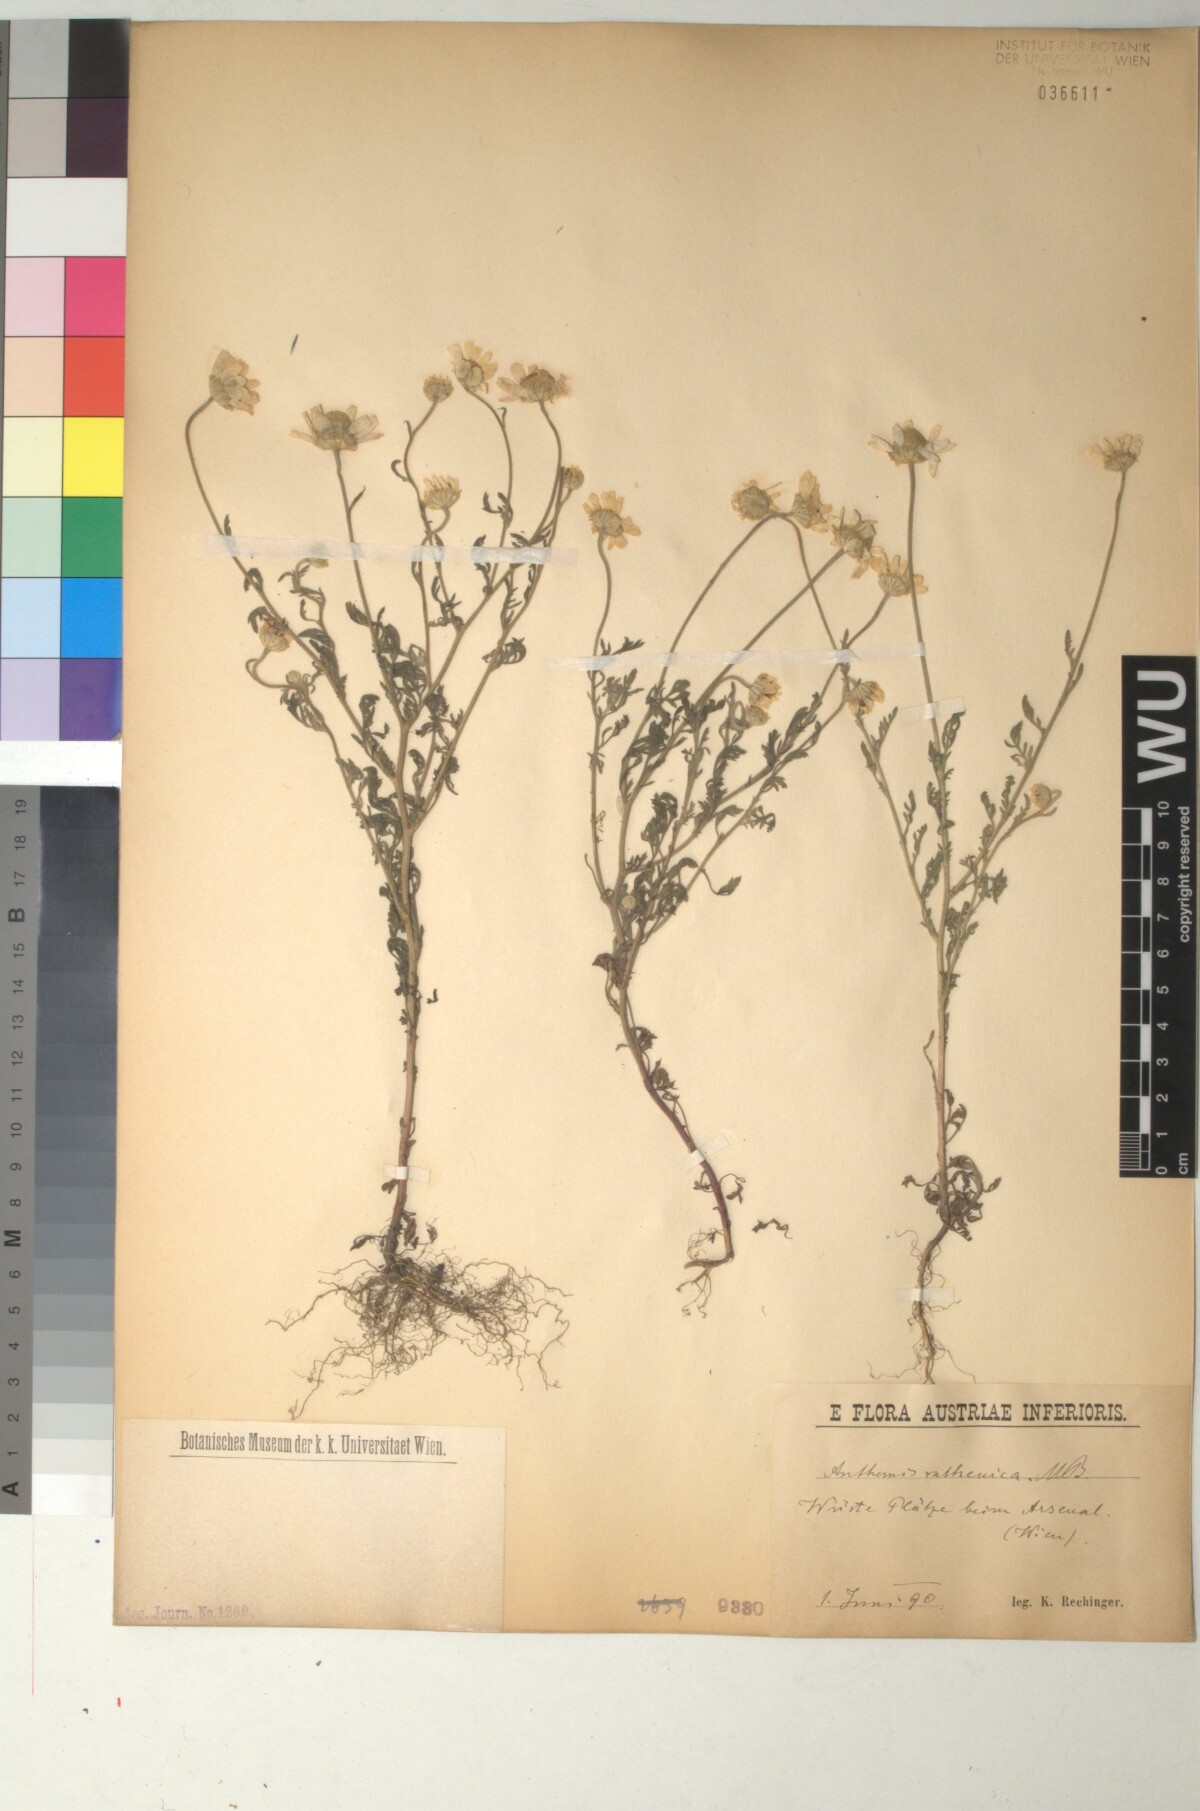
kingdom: Plantae
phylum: Tracheophyta
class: Magnoliopsida
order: Asterales
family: Asteraceae
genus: Anthemis
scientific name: Anthemis ruthenica
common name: Eastern chamomile
